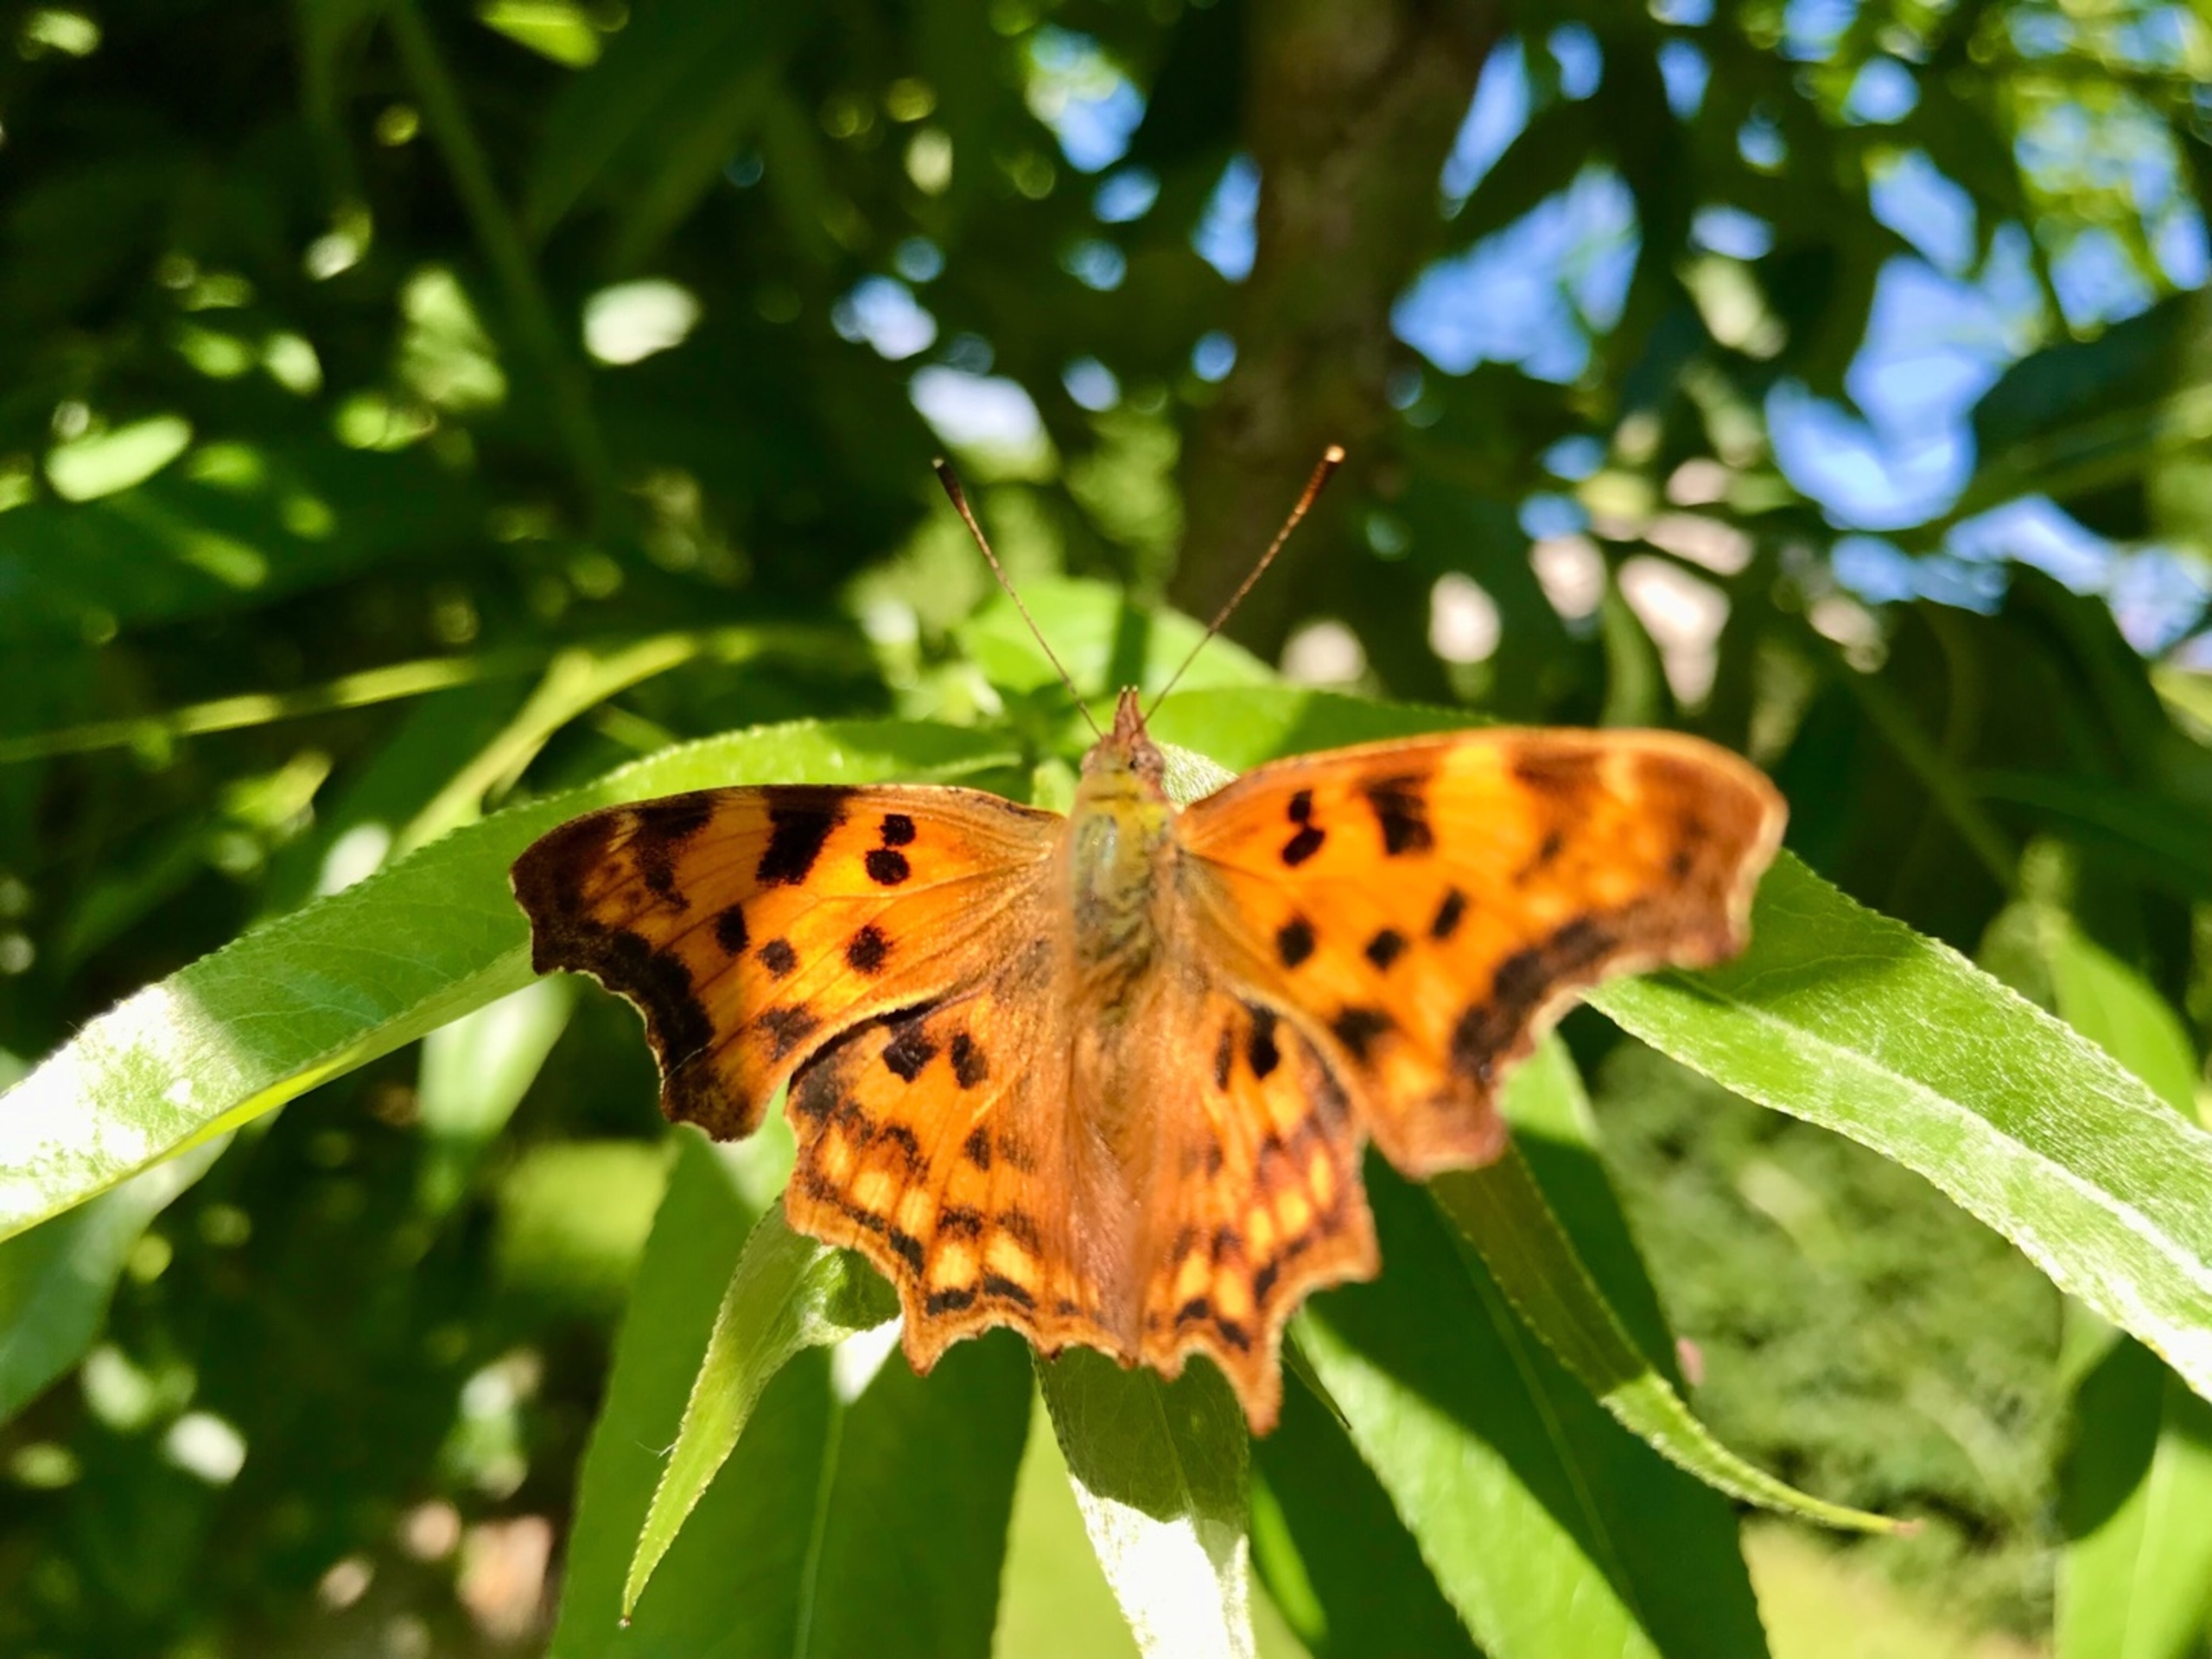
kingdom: Animalia
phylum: Arthropoda
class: Insecta
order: Lepidoptera
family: Nymphalidae
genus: Polygonia
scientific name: Polygonia c-album
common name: Det hvide C
